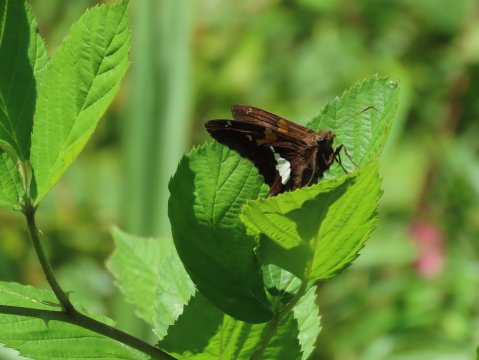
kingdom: Animalia
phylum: Arthropoda
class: Insecta
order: Lepidoptera
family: Hesperiidae
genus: Epargyreus
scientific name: Epargyreus clarus
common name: Silver-spotted Skipper
